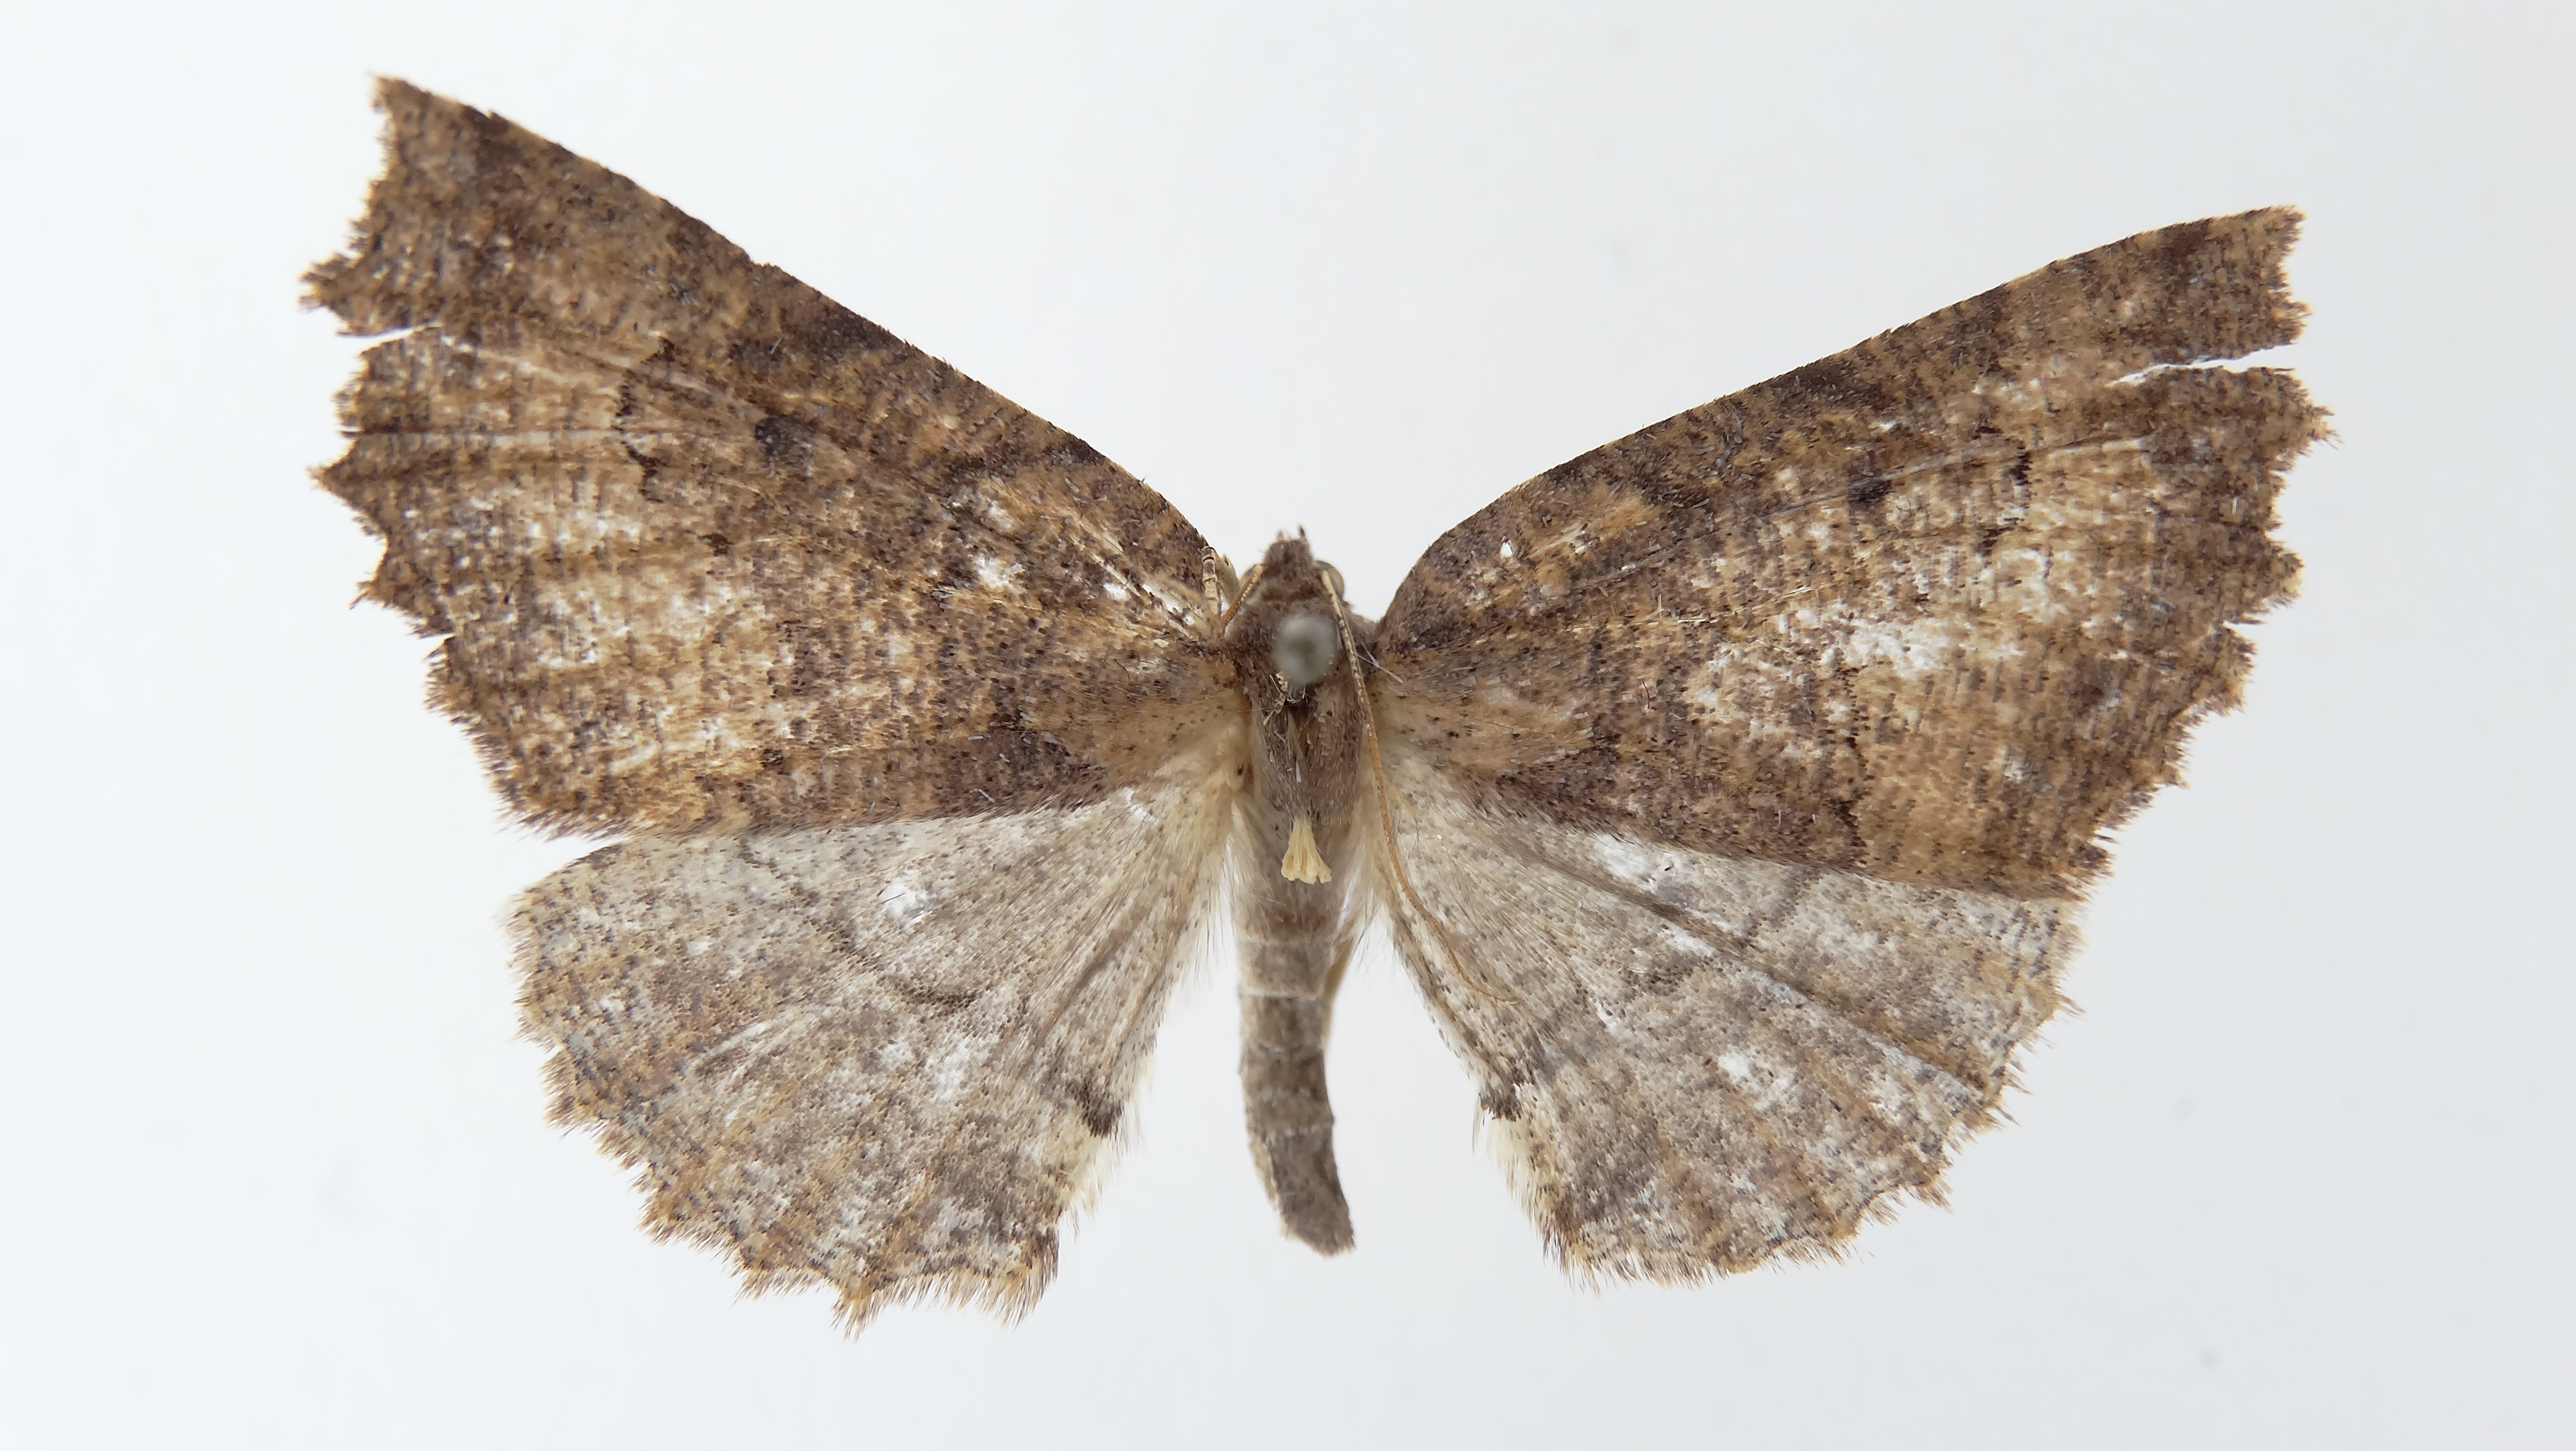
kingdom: Animalia
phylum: Arthropoda
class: Insecta
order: Lepidoptera
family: Geometridae
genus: Odontopera
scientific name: Odontopera fragilis
